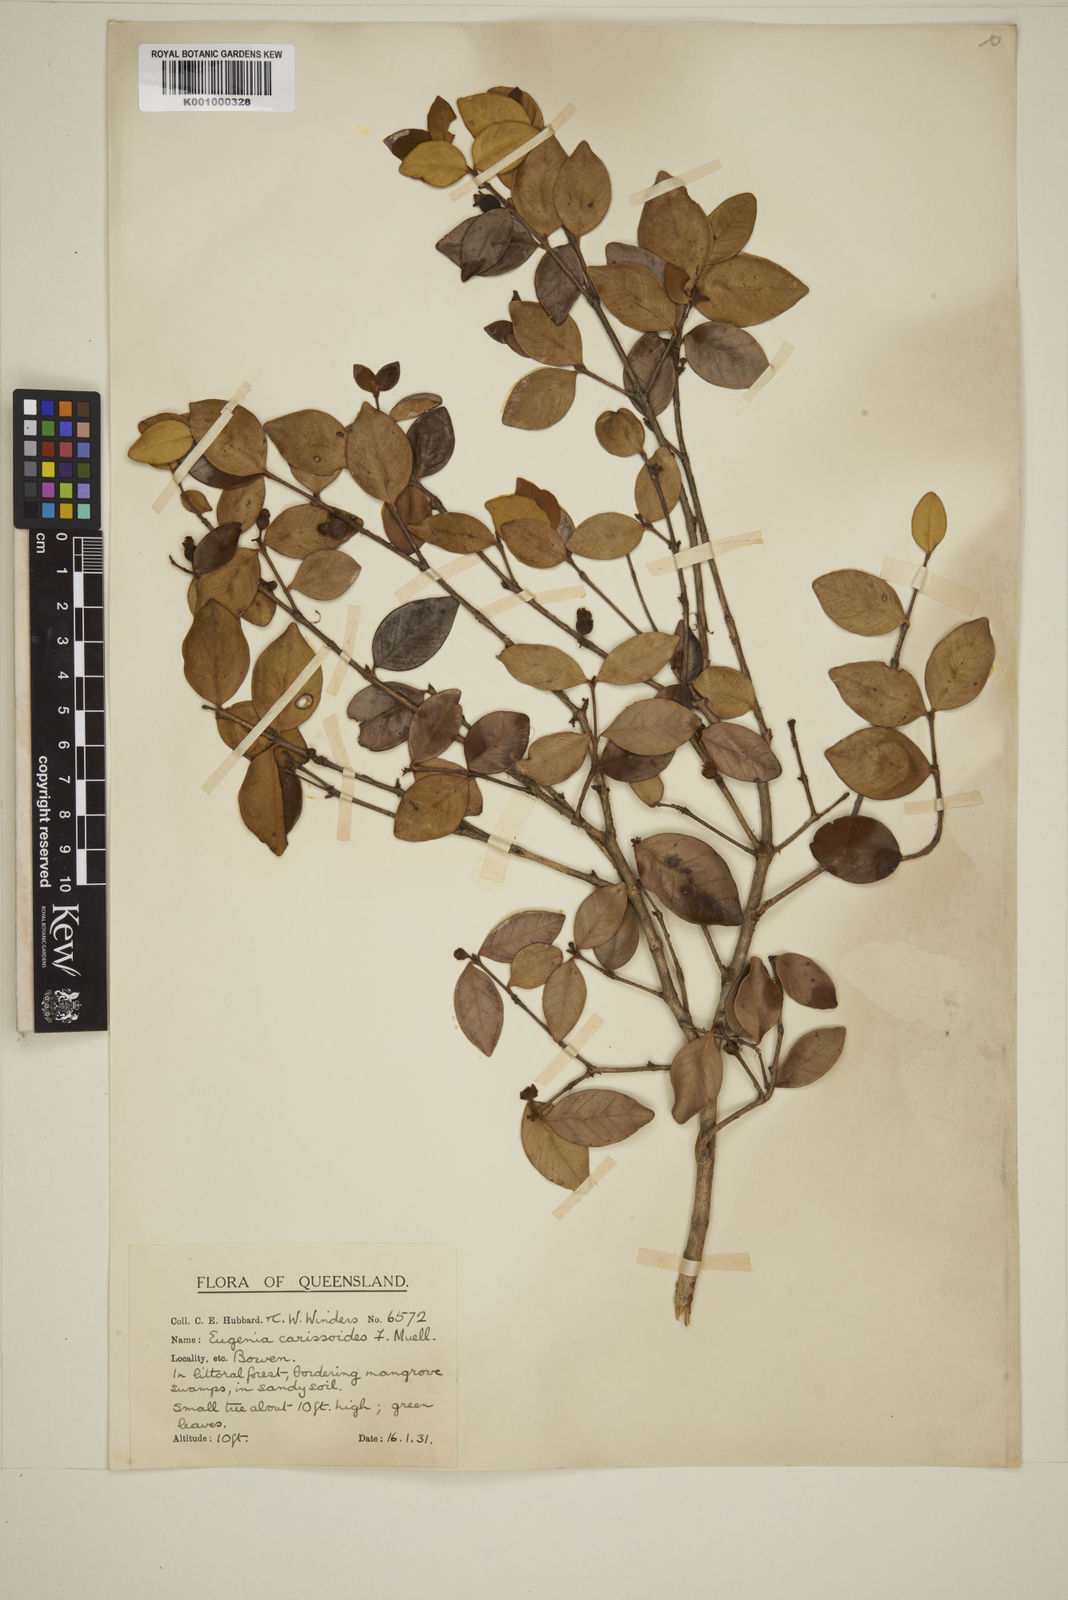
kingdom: Plantae
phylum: Tracheophyta
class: Magnoliopsida
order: Myrtales
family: Myrtaceae
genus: Eugenia
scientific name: Eugenia reinwardtiana
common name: Cedar bay-cherry
